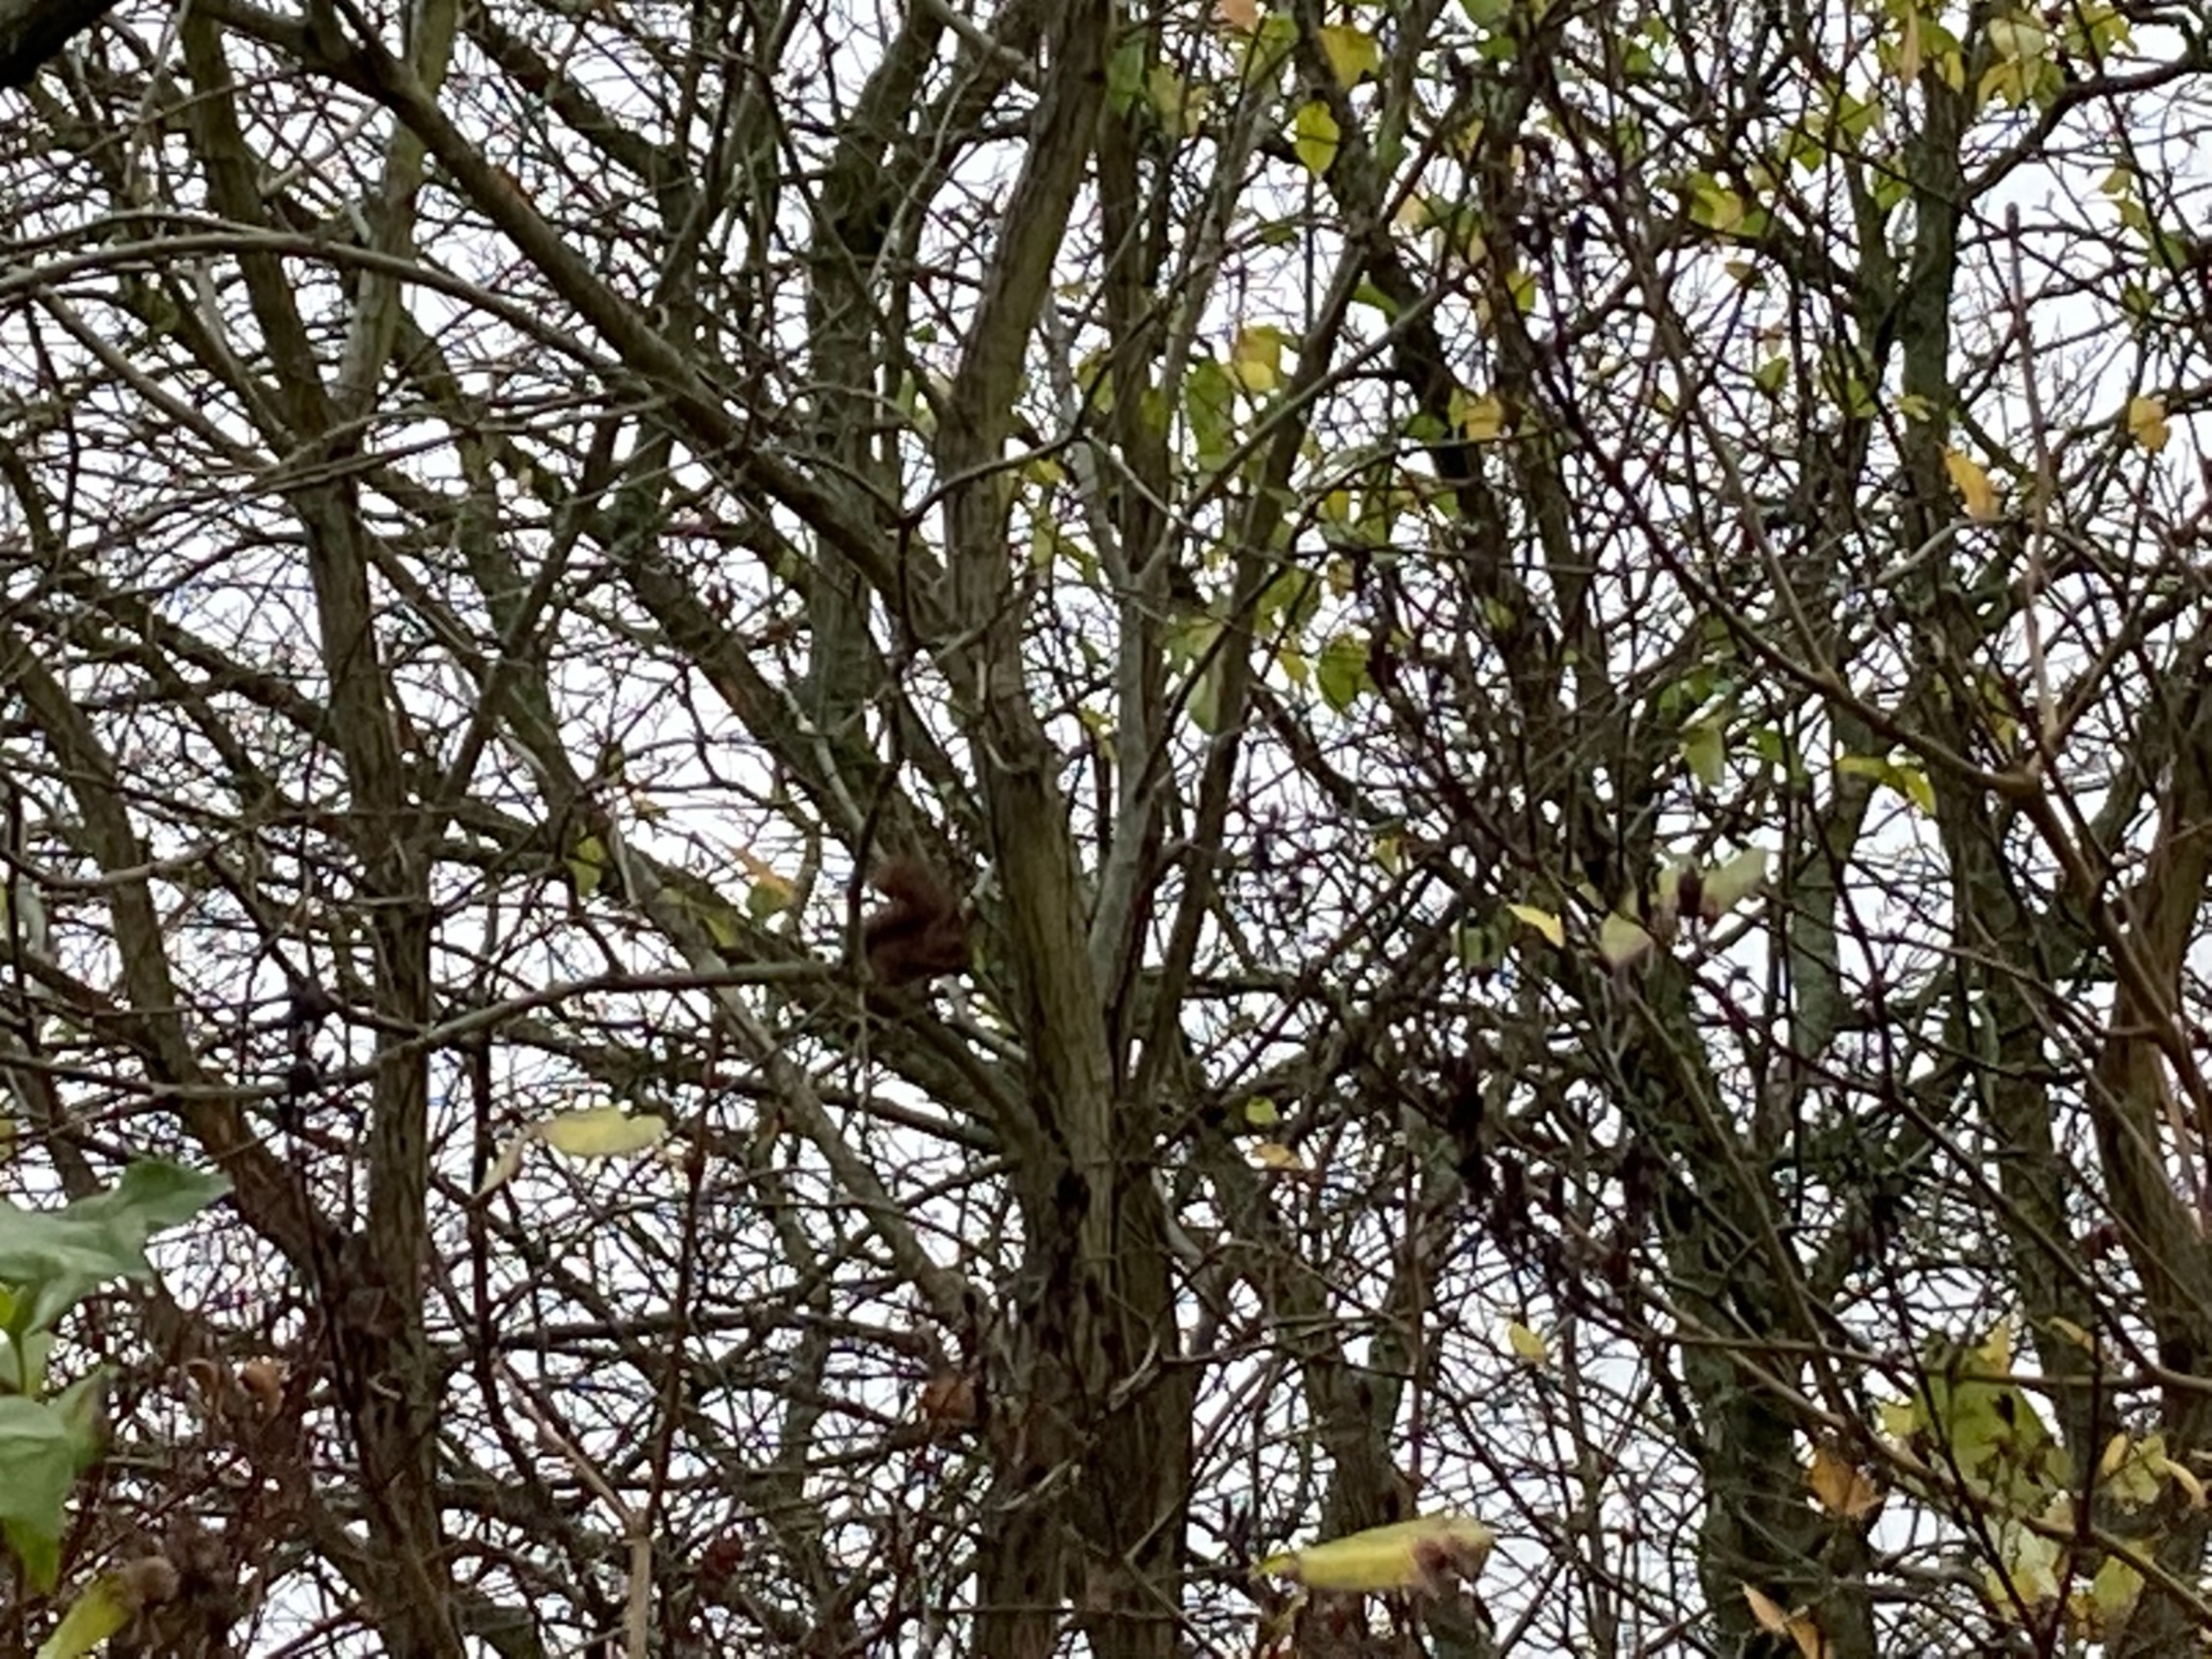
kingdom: Animalia
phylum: Chordata
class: Mammalia
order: Rodentia
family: Sciuridae
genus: Sciurus
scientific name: Sciurus vulgaris
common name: Egern
